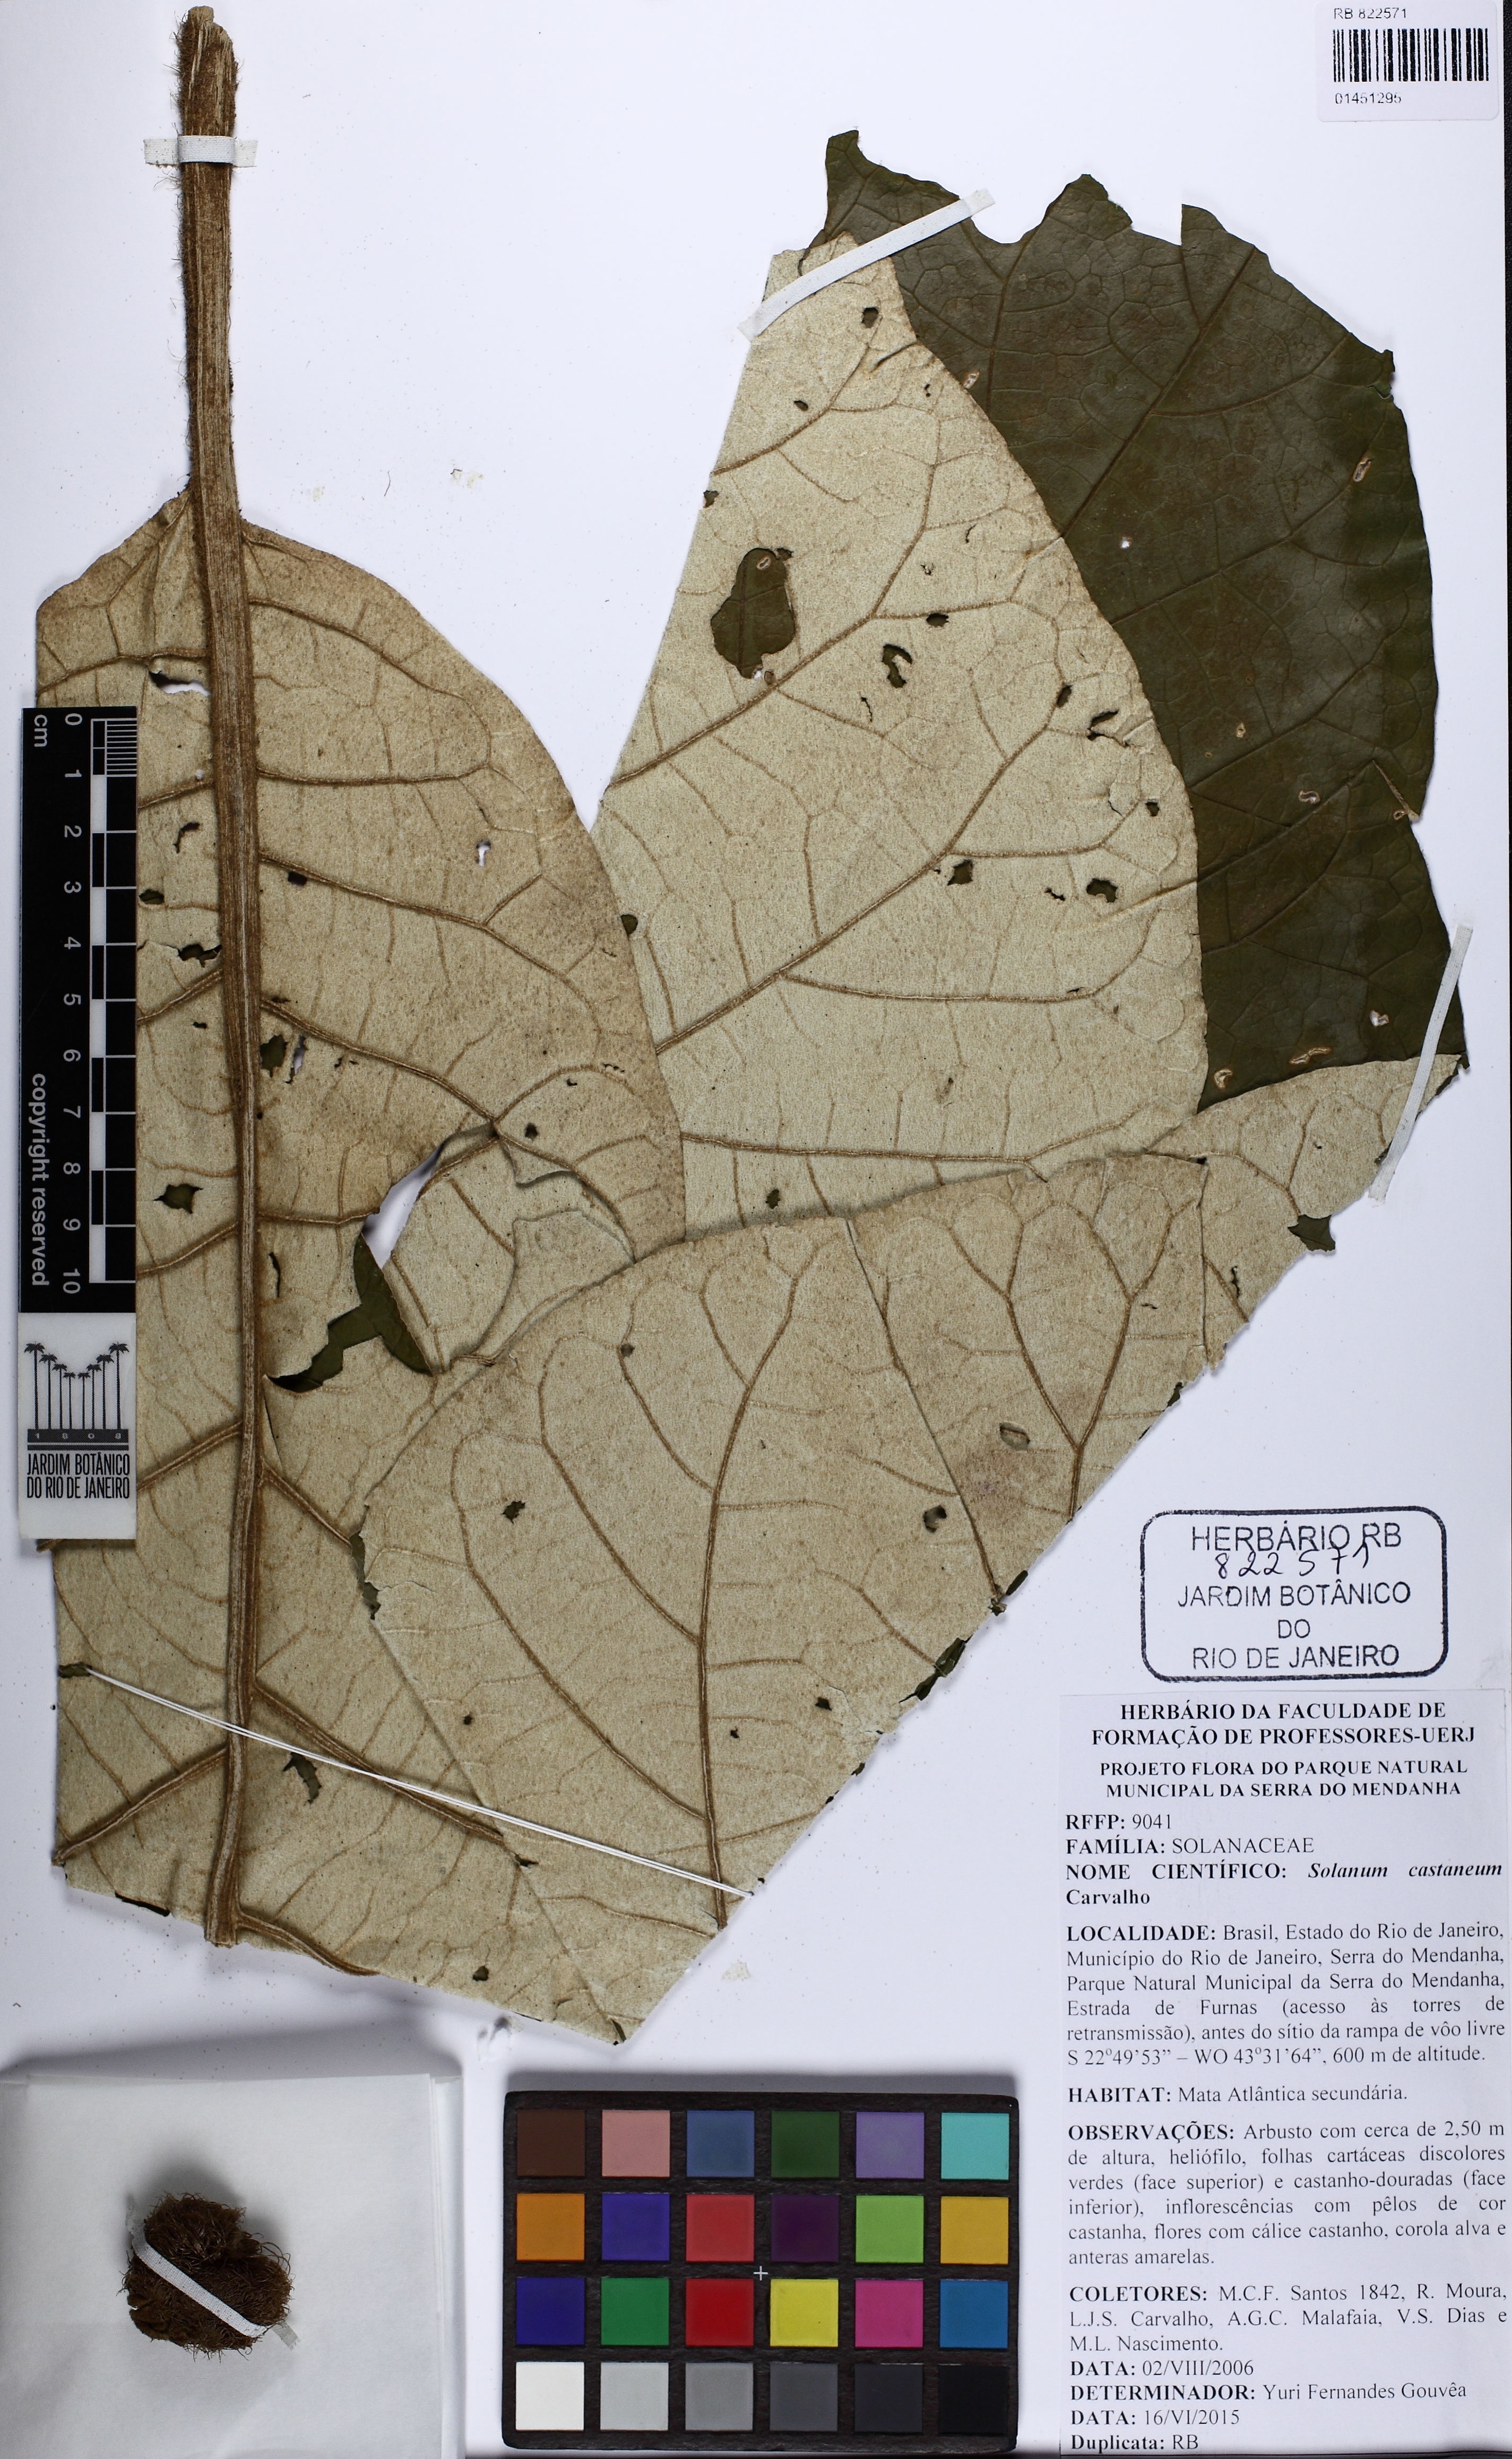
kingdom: Plantae
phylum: Tracheophyta
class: Magnoliopsida
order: Solanales
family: Solanaceae
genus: Solanum
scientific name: Solanum castaneum
